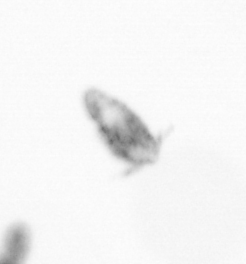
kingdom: Animalia
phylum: Arthropoda
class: Copepoda
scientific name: Copepoda
